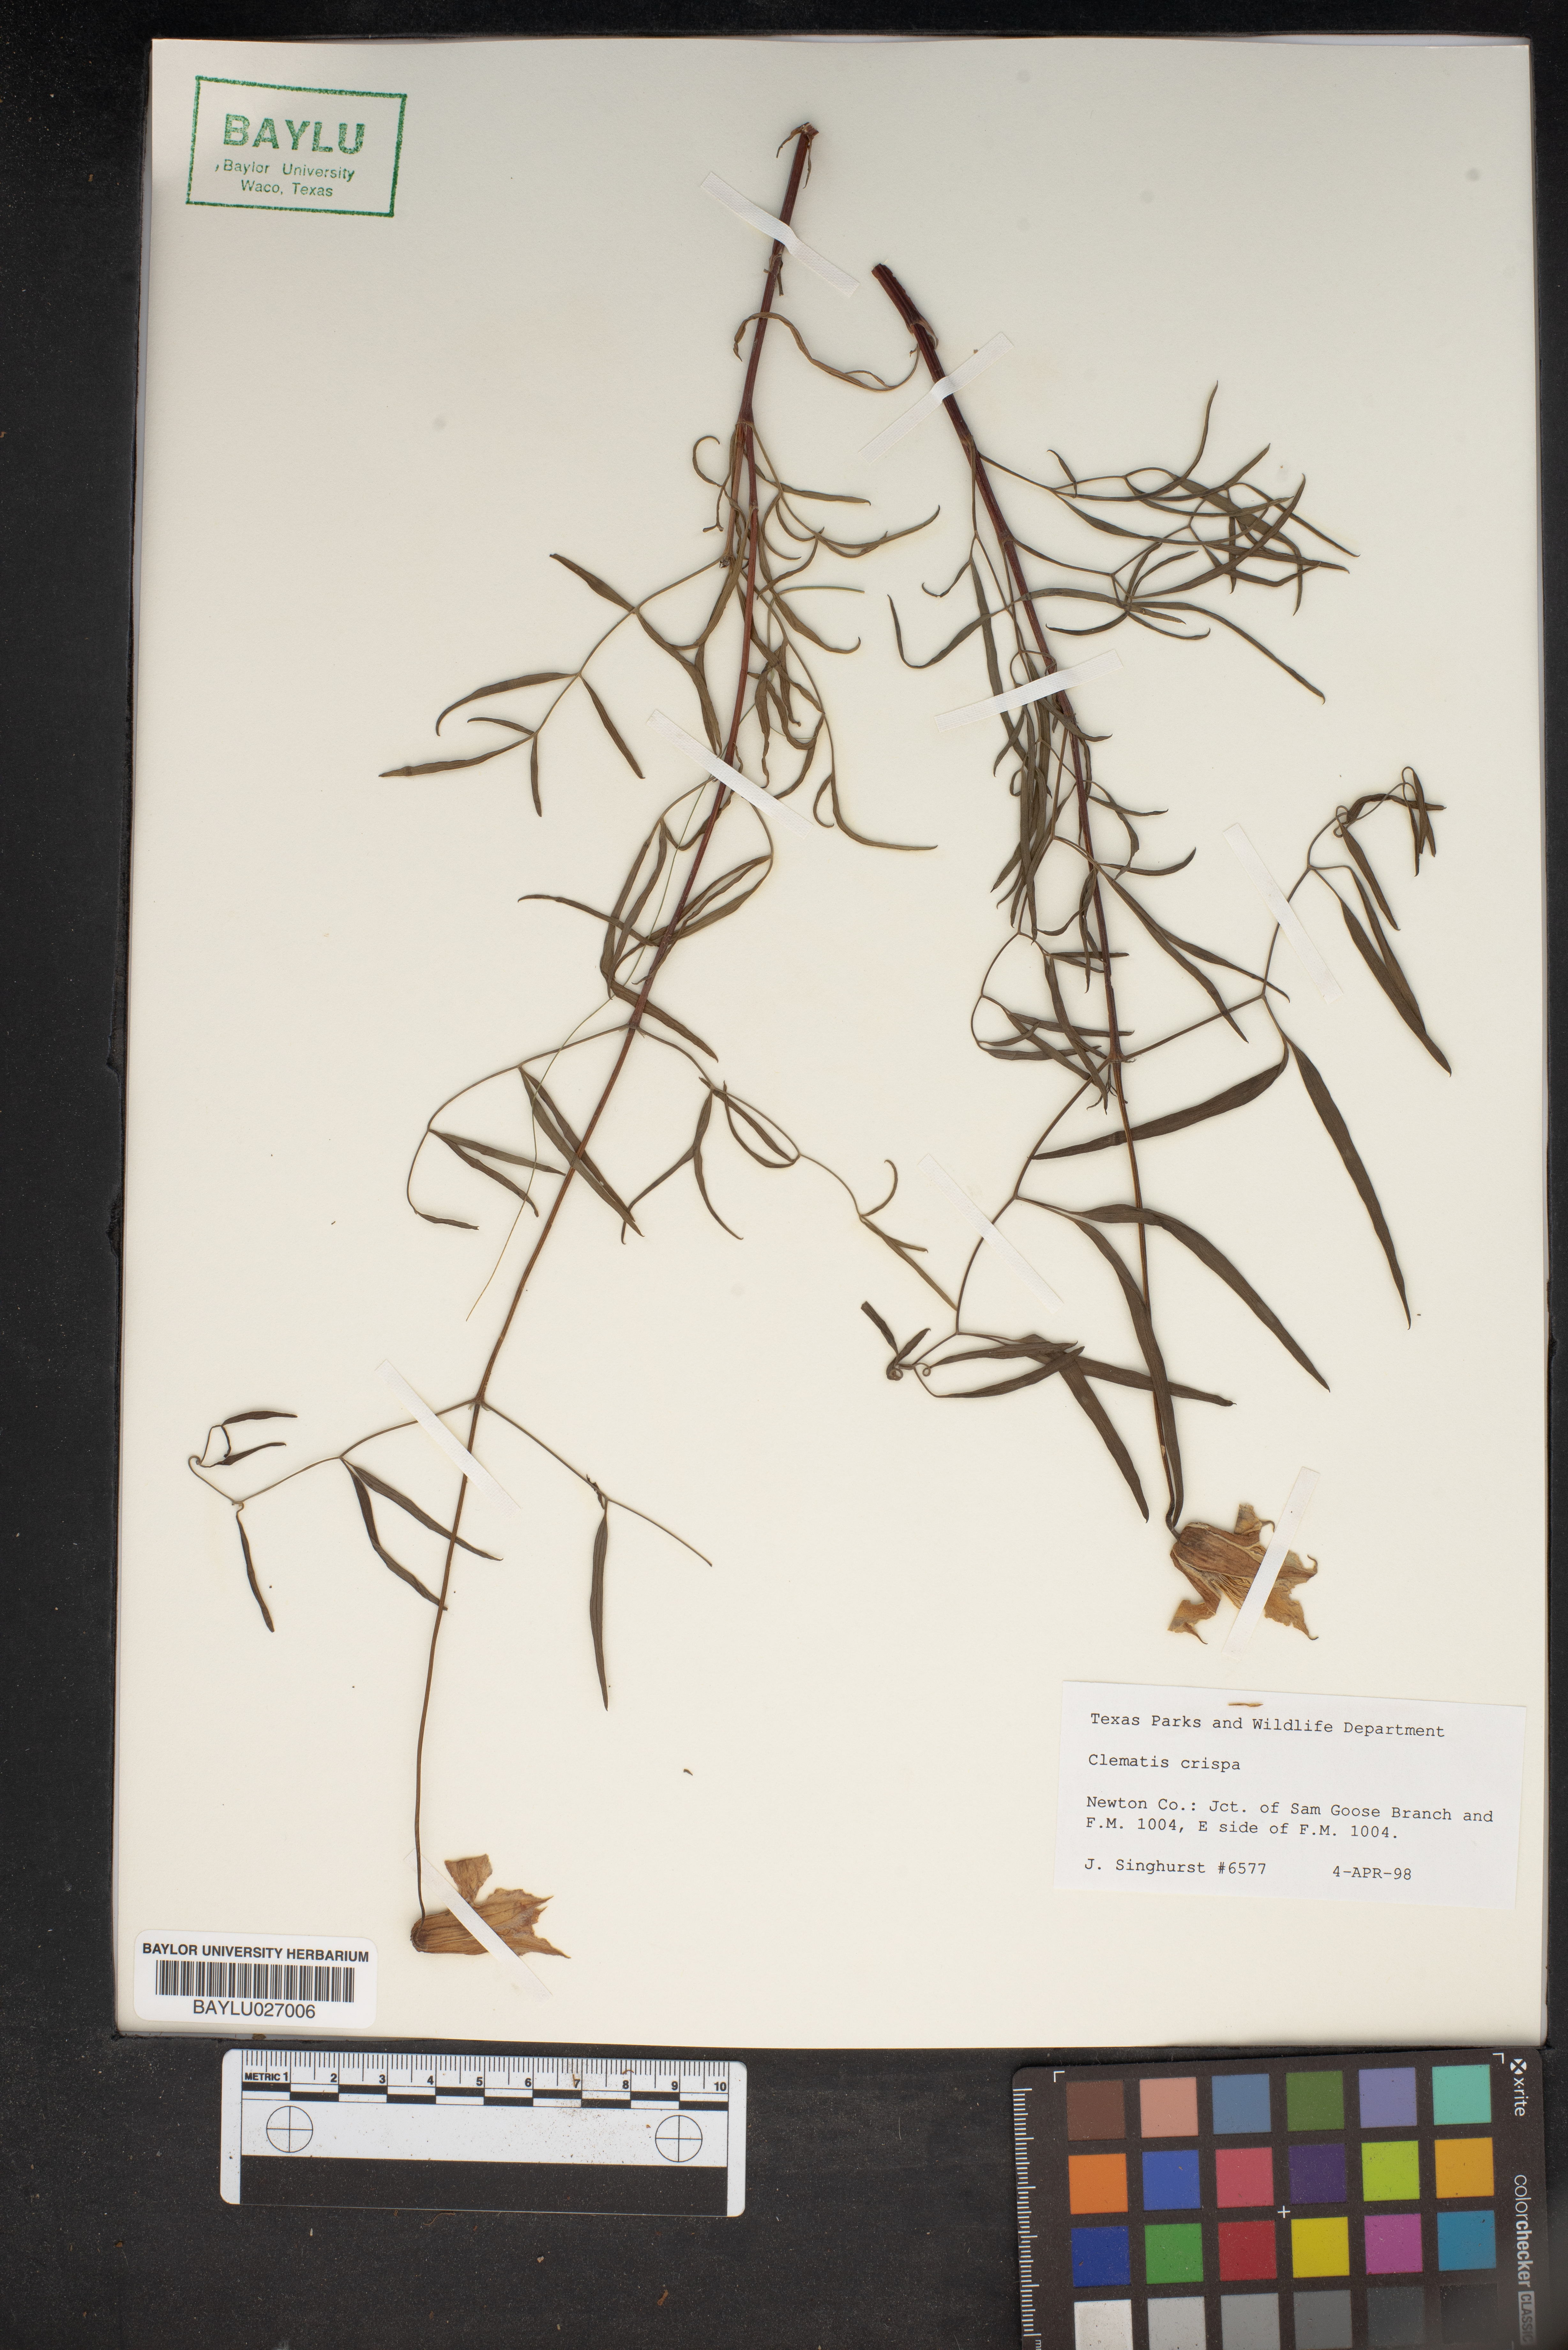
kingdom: Plantae
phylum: Tracheophyta
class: Magnoliopsida
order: Ranunculales
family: Ranunculaceae
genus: Clematis
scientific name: Clematis crispa
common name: Curly clematis
